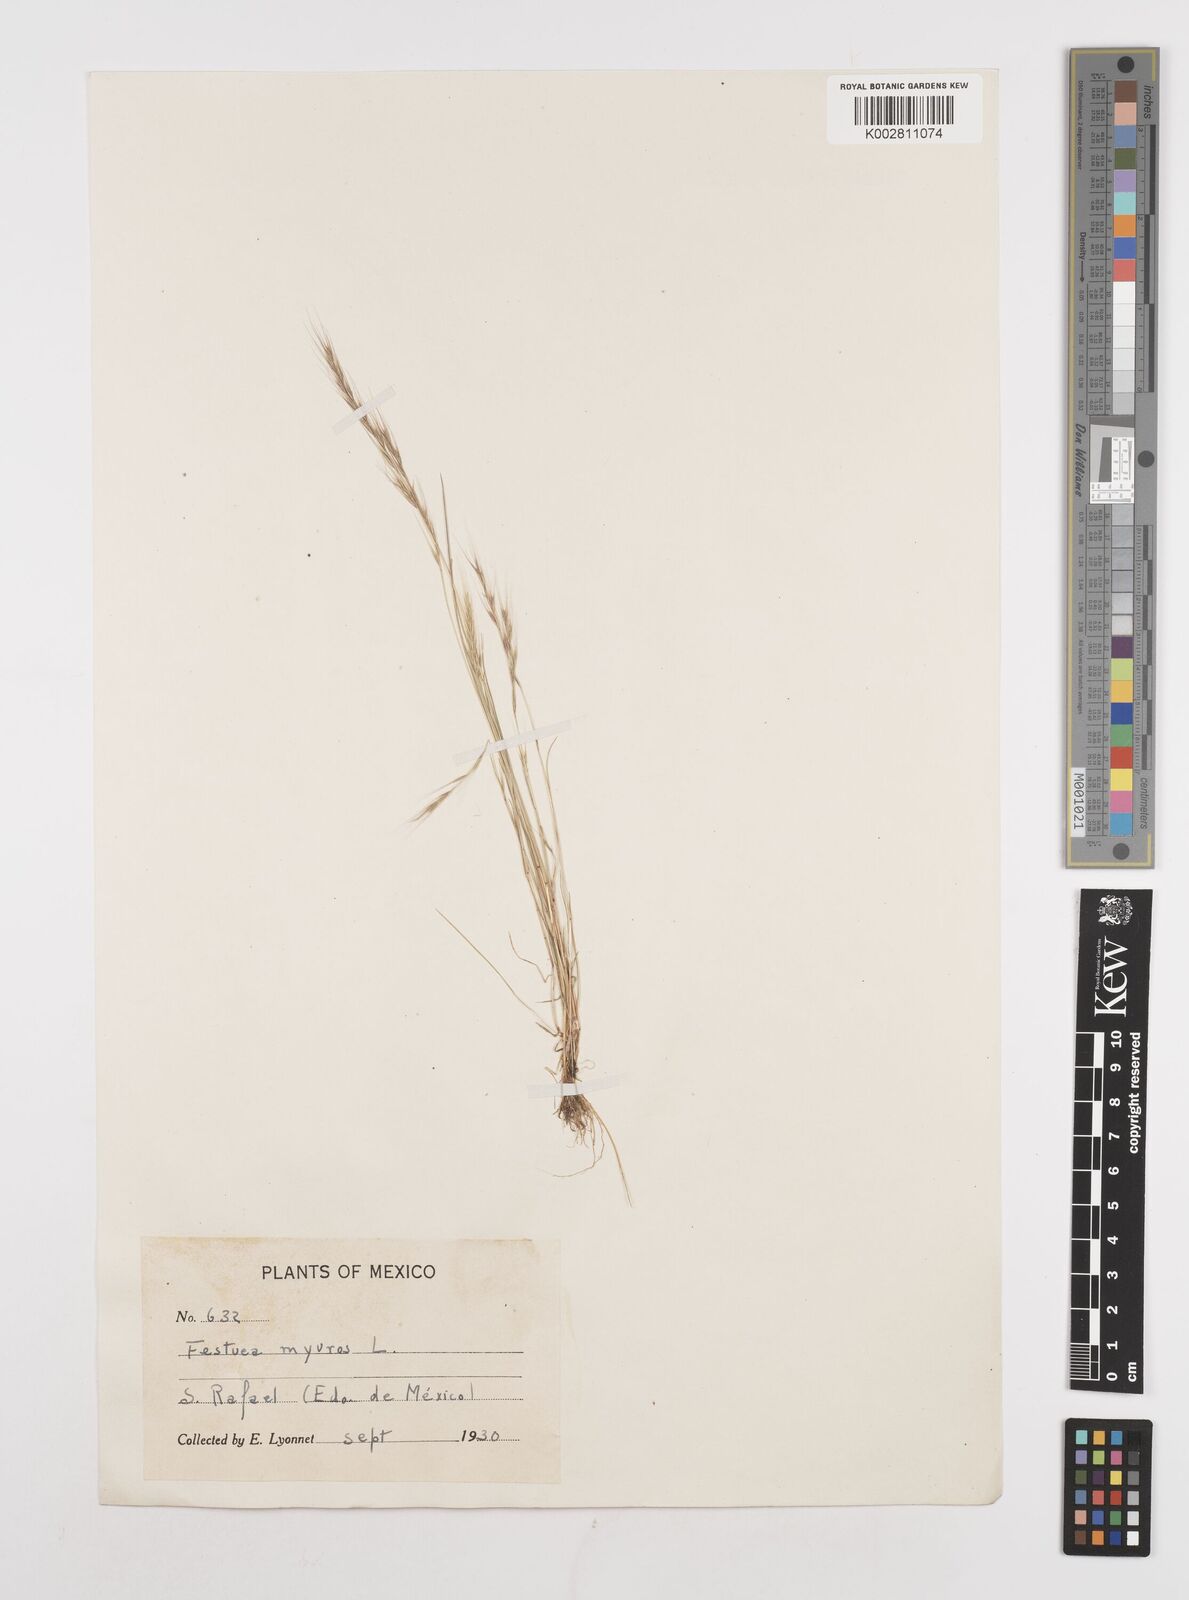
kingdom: Plantae
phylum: Tracheophyta
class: Liliopsida
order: Poales
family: Poaceae
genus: Festuca
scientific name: Festuca myuros
